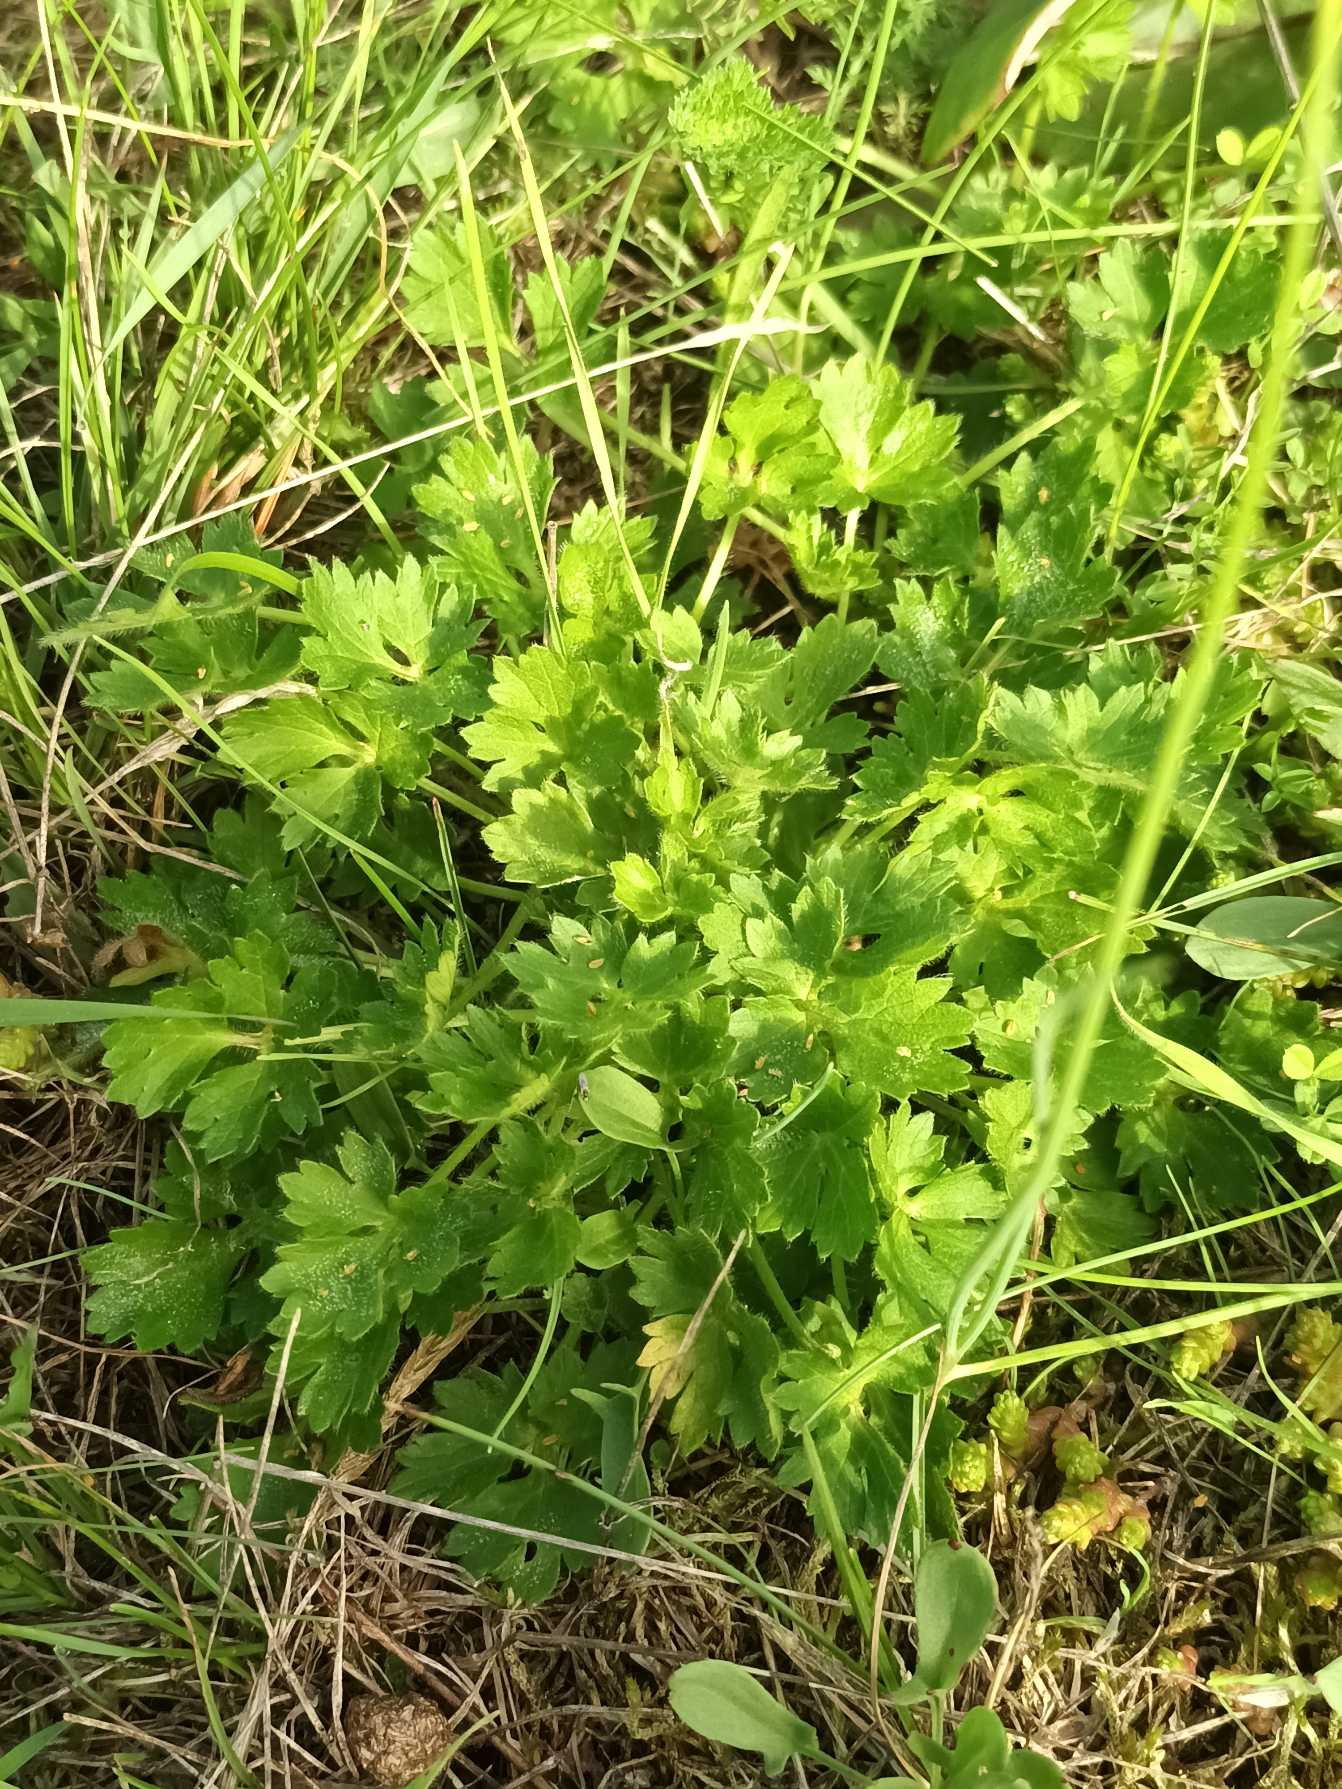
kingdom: Plantae
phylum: Tracheophyta
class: Magnoliopsida
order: Ranunculales
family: Ranunculaceae
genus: Ranunculus
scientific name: Ranunculus bulbosus
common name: Knold-ranunkel
